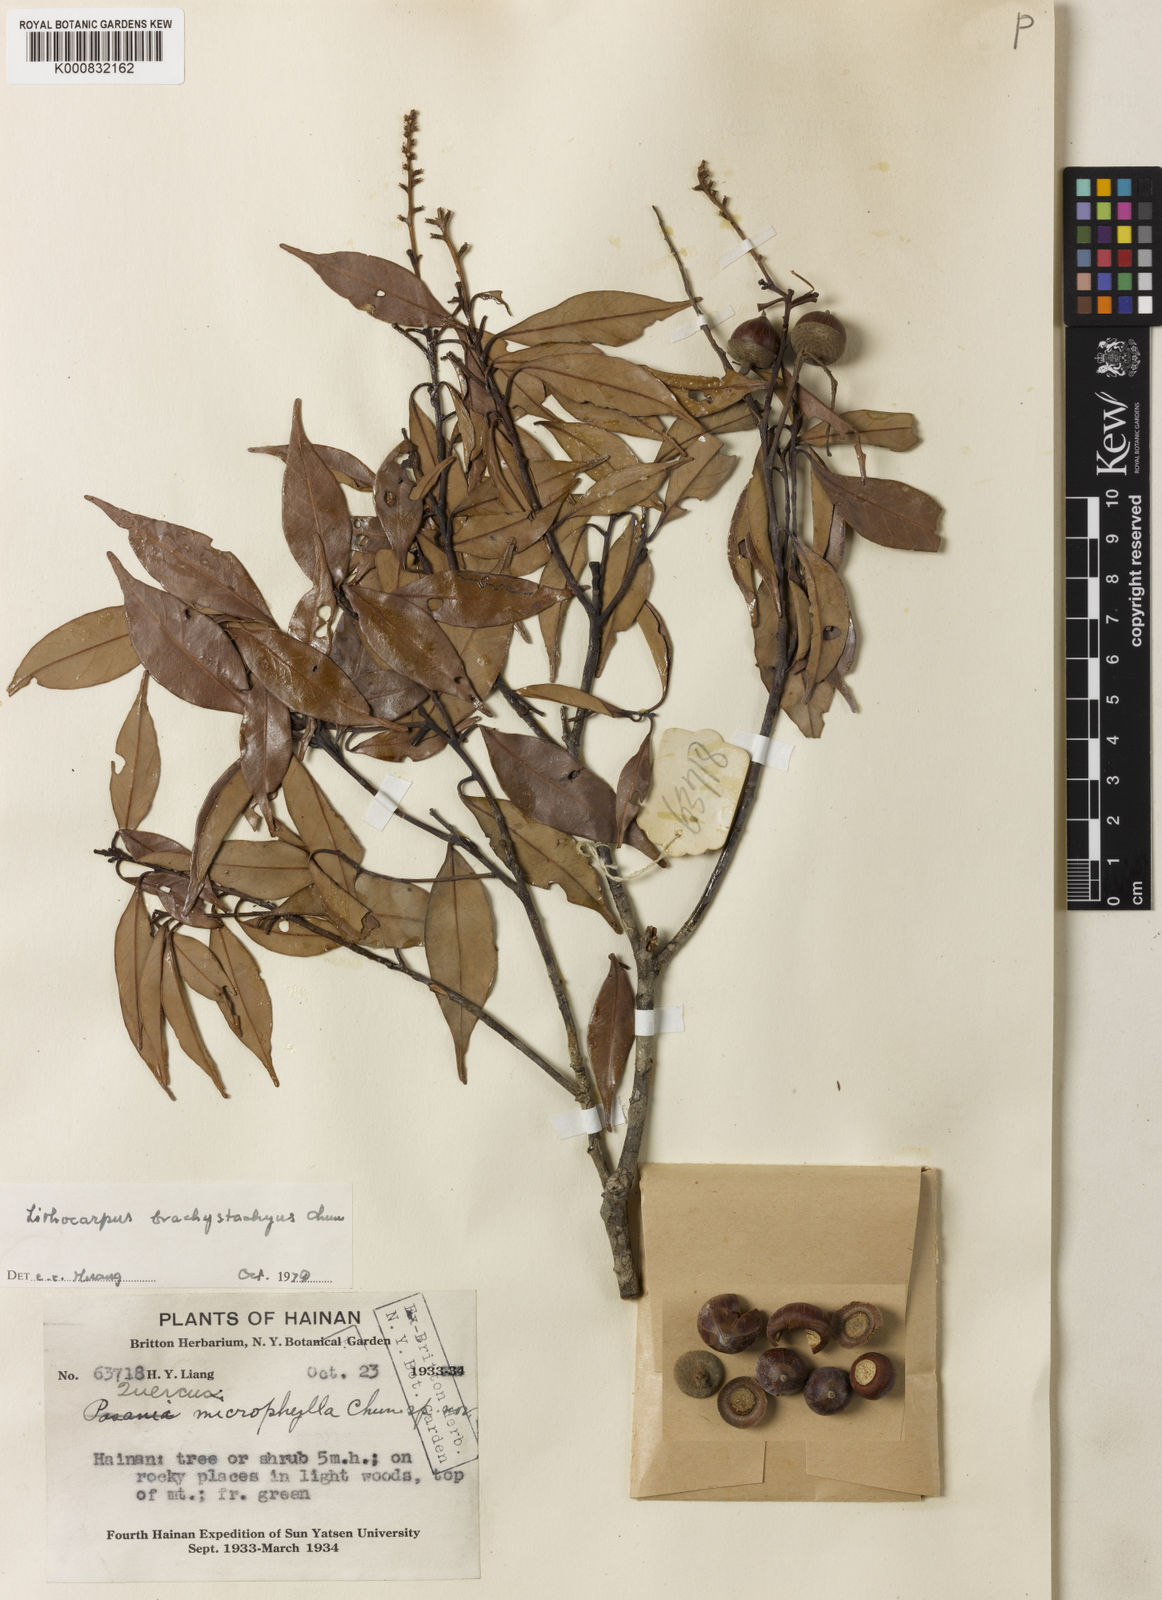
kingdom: Plantae
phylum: Tracheophyta
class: Magnoliopsida
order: Fagales
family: Fagaceae
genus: Lithocarpus
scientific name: Lithocarpus brachystachyus
